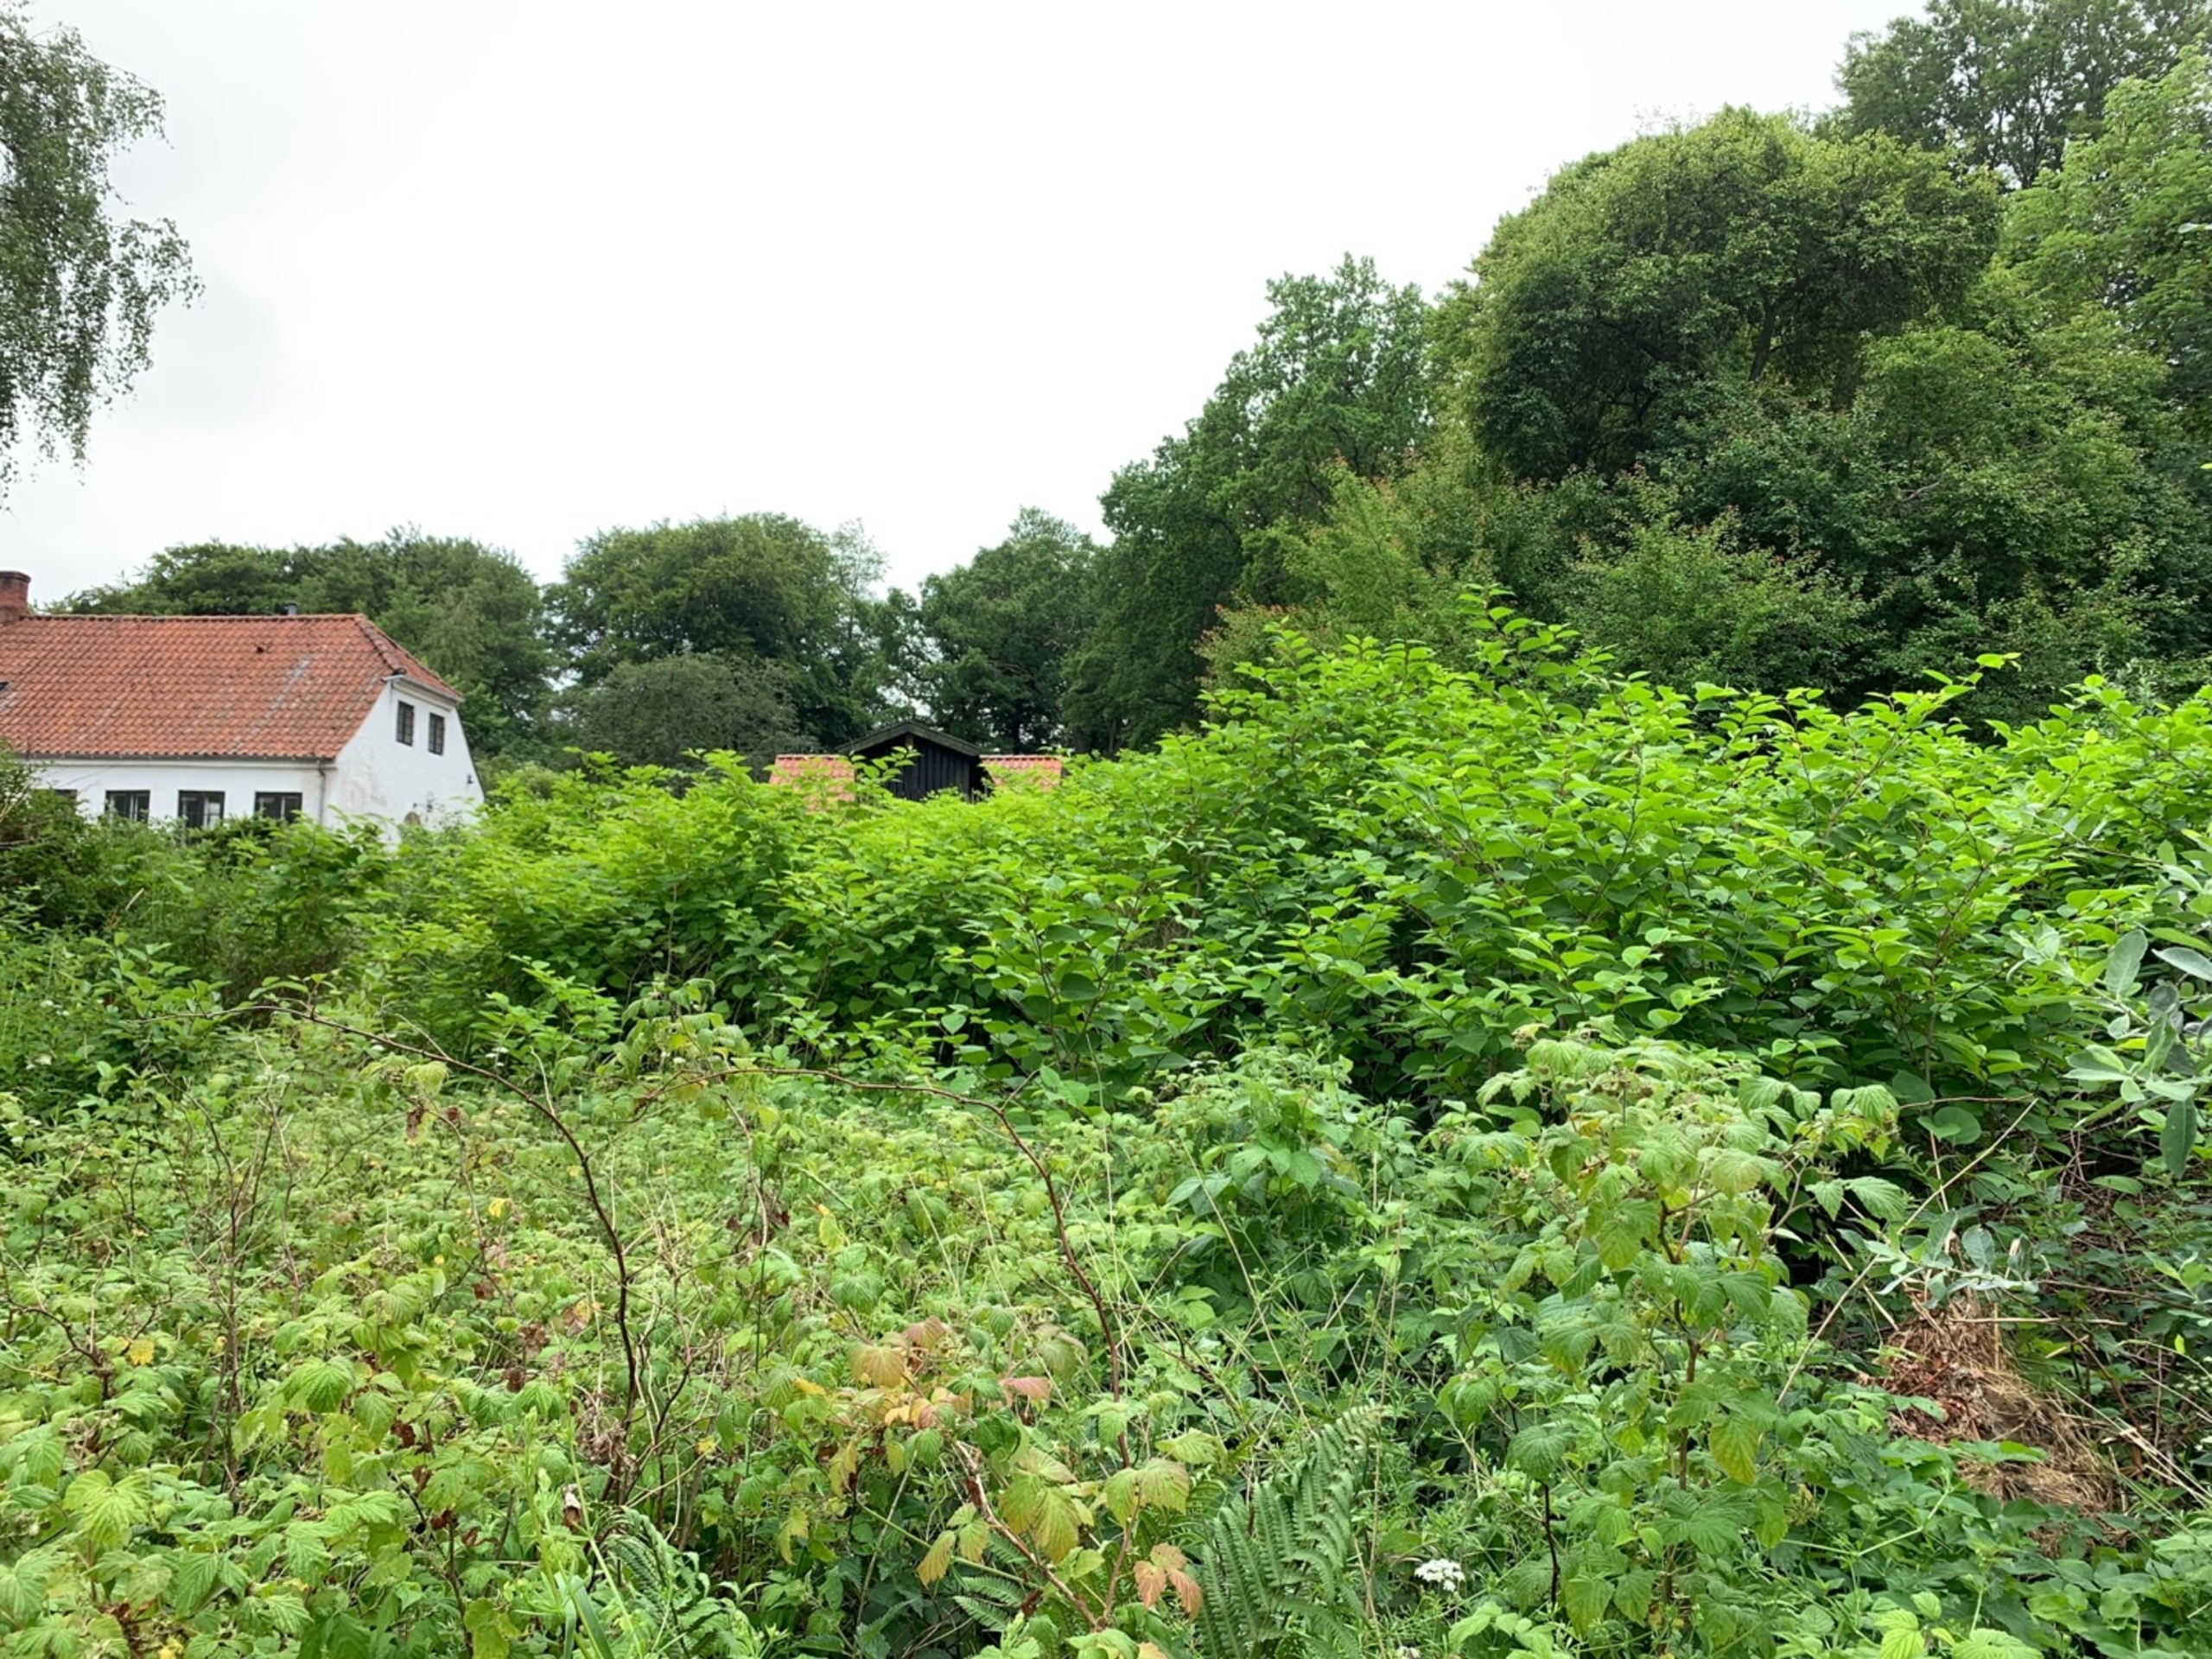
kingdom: Plantae
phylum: Tracheophyta
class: Magnoliopsida
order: Caryophyllales
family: Polygonaceae
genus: Reynoutria
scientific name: Reynoutria japonica
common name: Japan-pileurt
